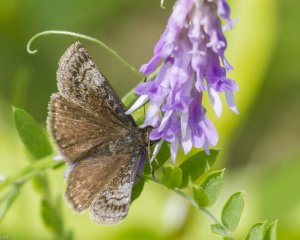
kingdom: Animalia
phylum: Arthropoda
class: Insecta
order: Lepidoptera
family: Hesperiidae
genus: Erynnis
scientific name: Erynnis icelus
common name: Dreamy Duskywing
